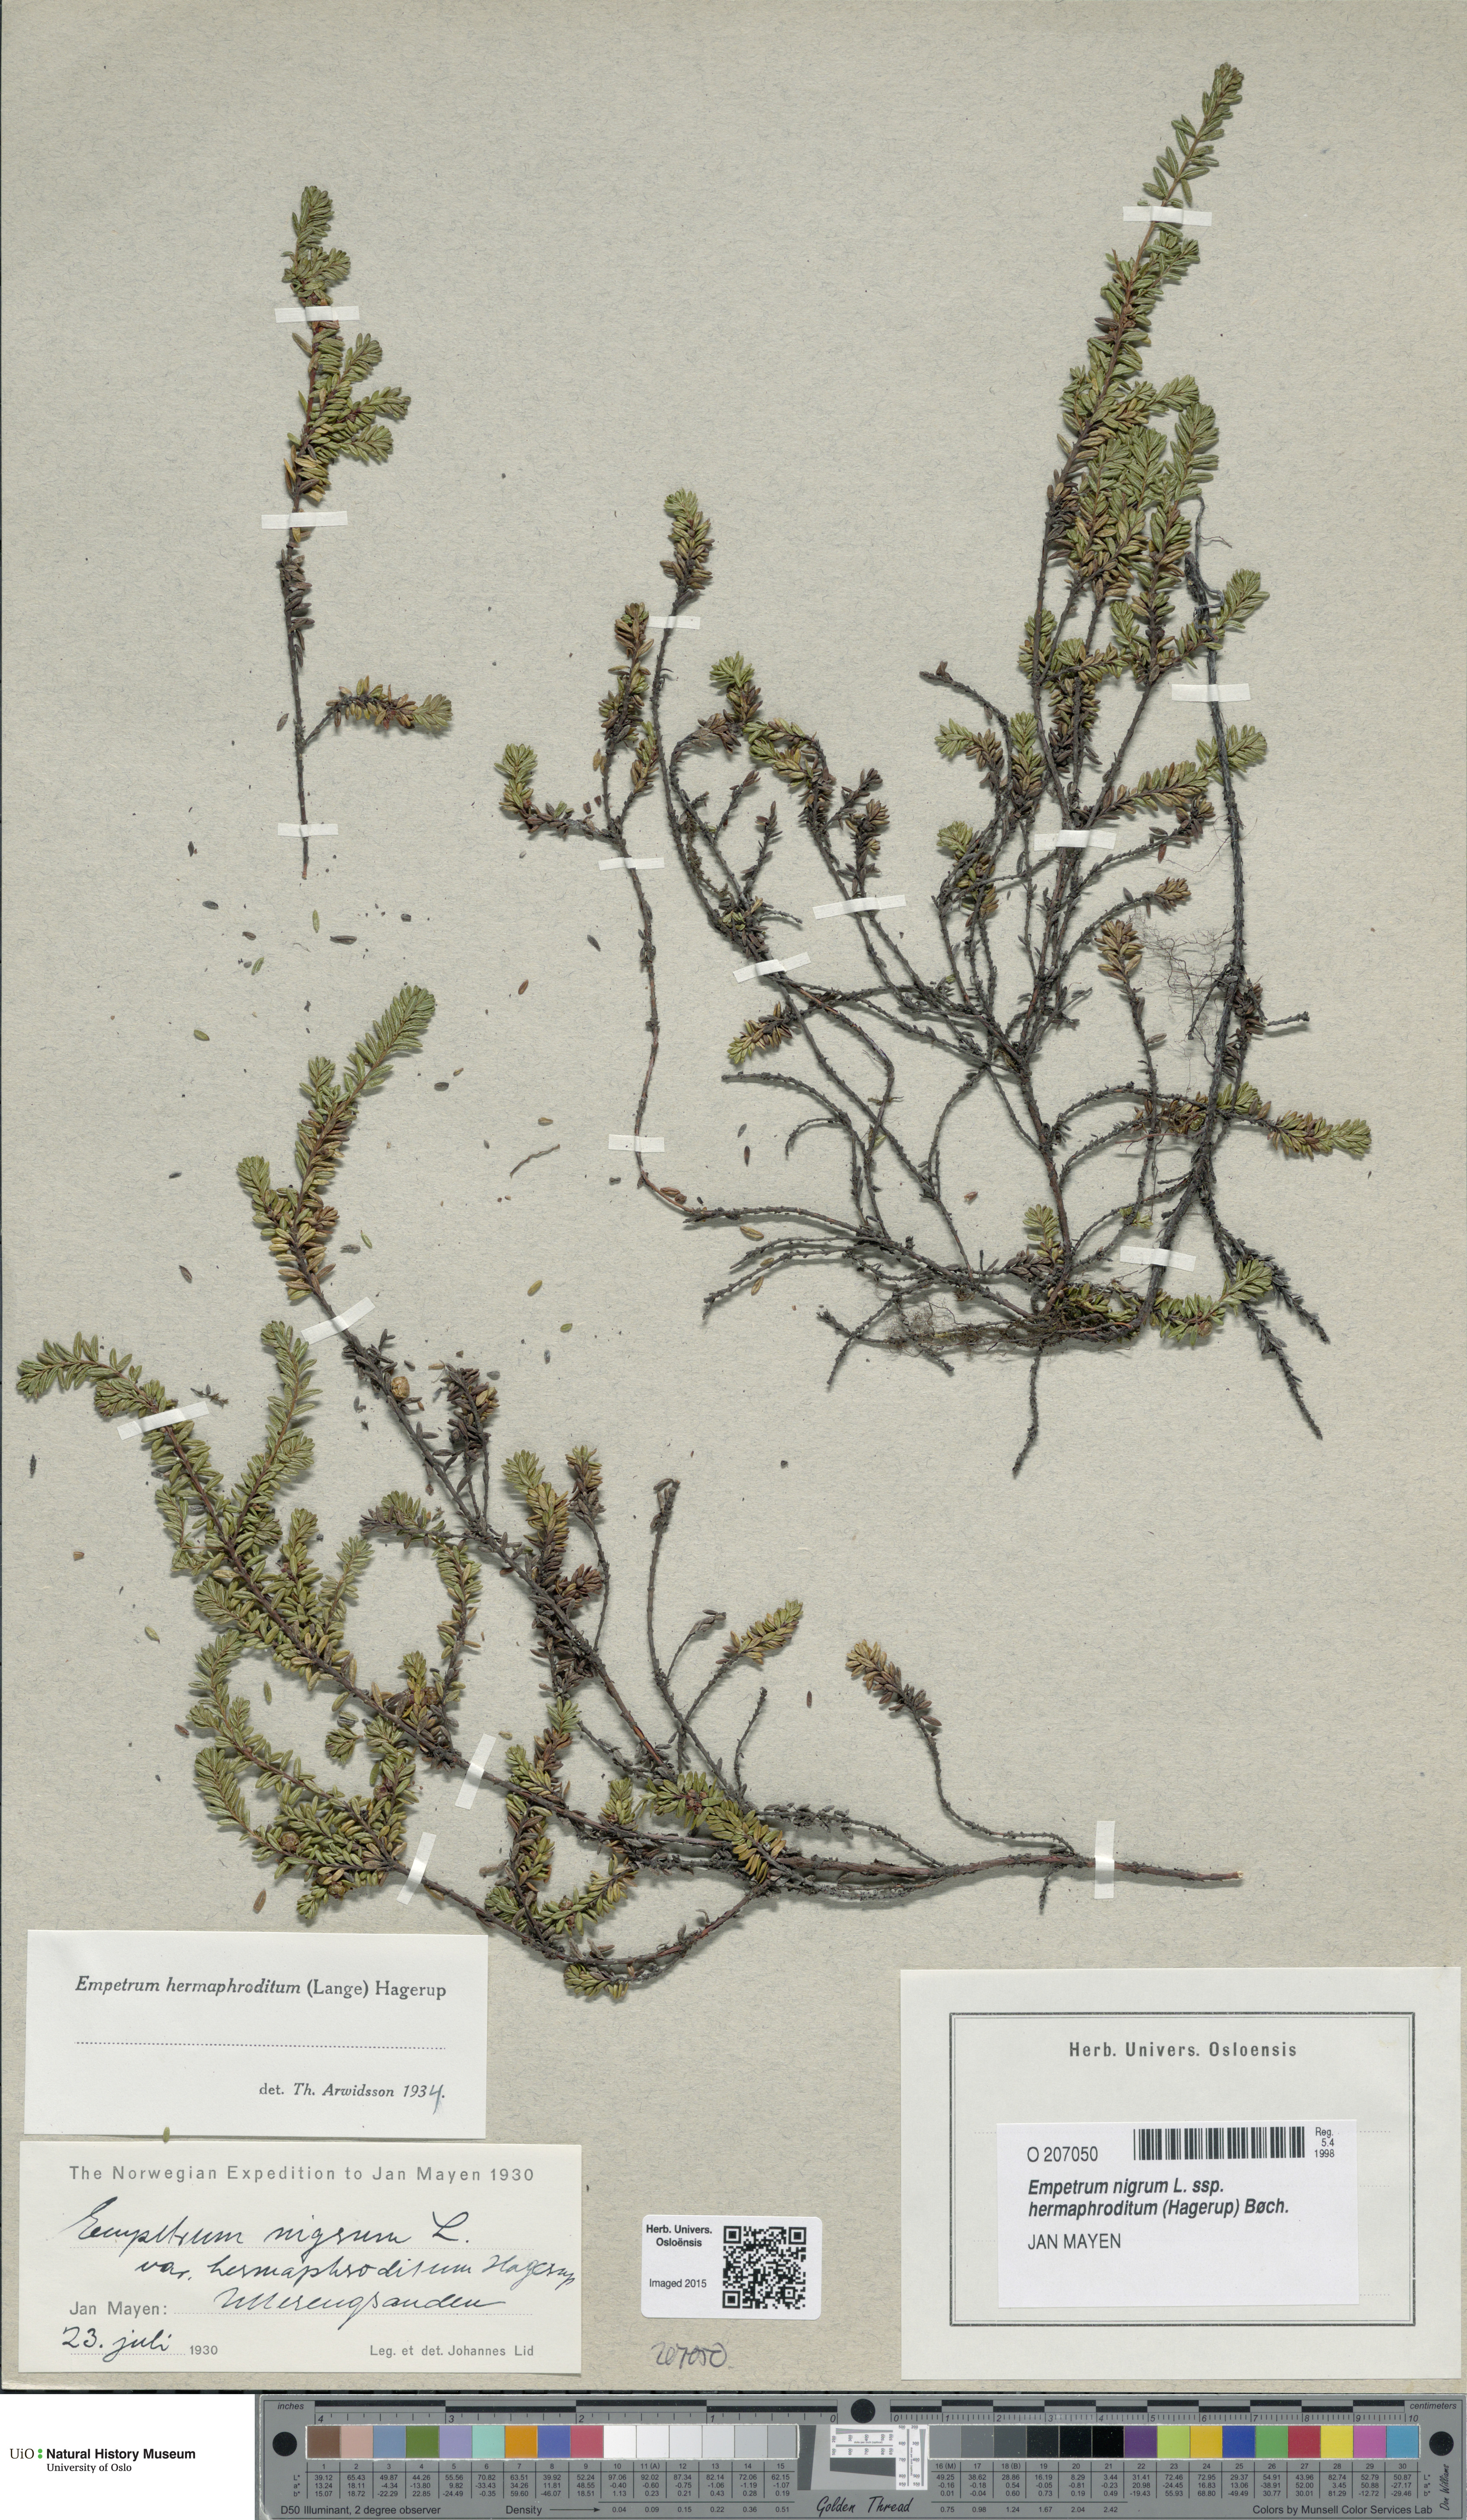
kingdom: Plantae
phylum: Tracheophyta
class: Magnoliopsida
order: Ericales
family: Ericaceae
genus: Empetrum
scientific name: Empetrum hermaphroditum
